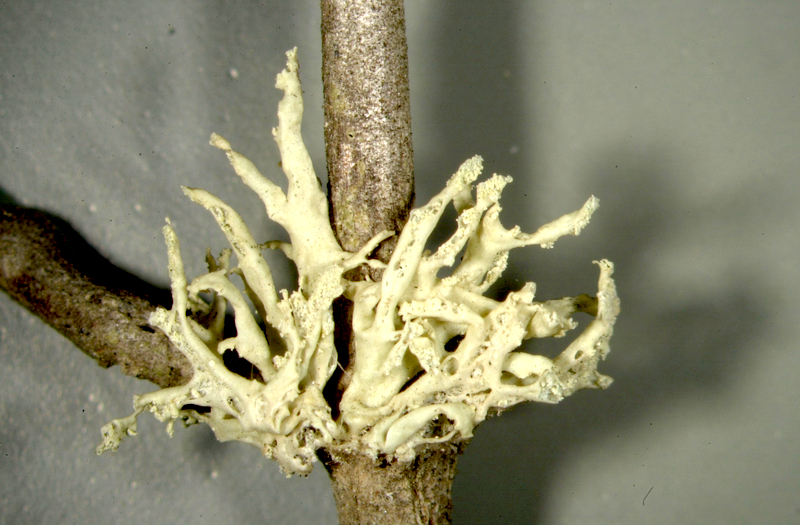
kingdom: Fungi
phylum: Ascomycota
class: Lecanoromycetes
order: Lecanorales
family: Ramalinaceae
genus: Ramalina
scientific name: Ramalina
